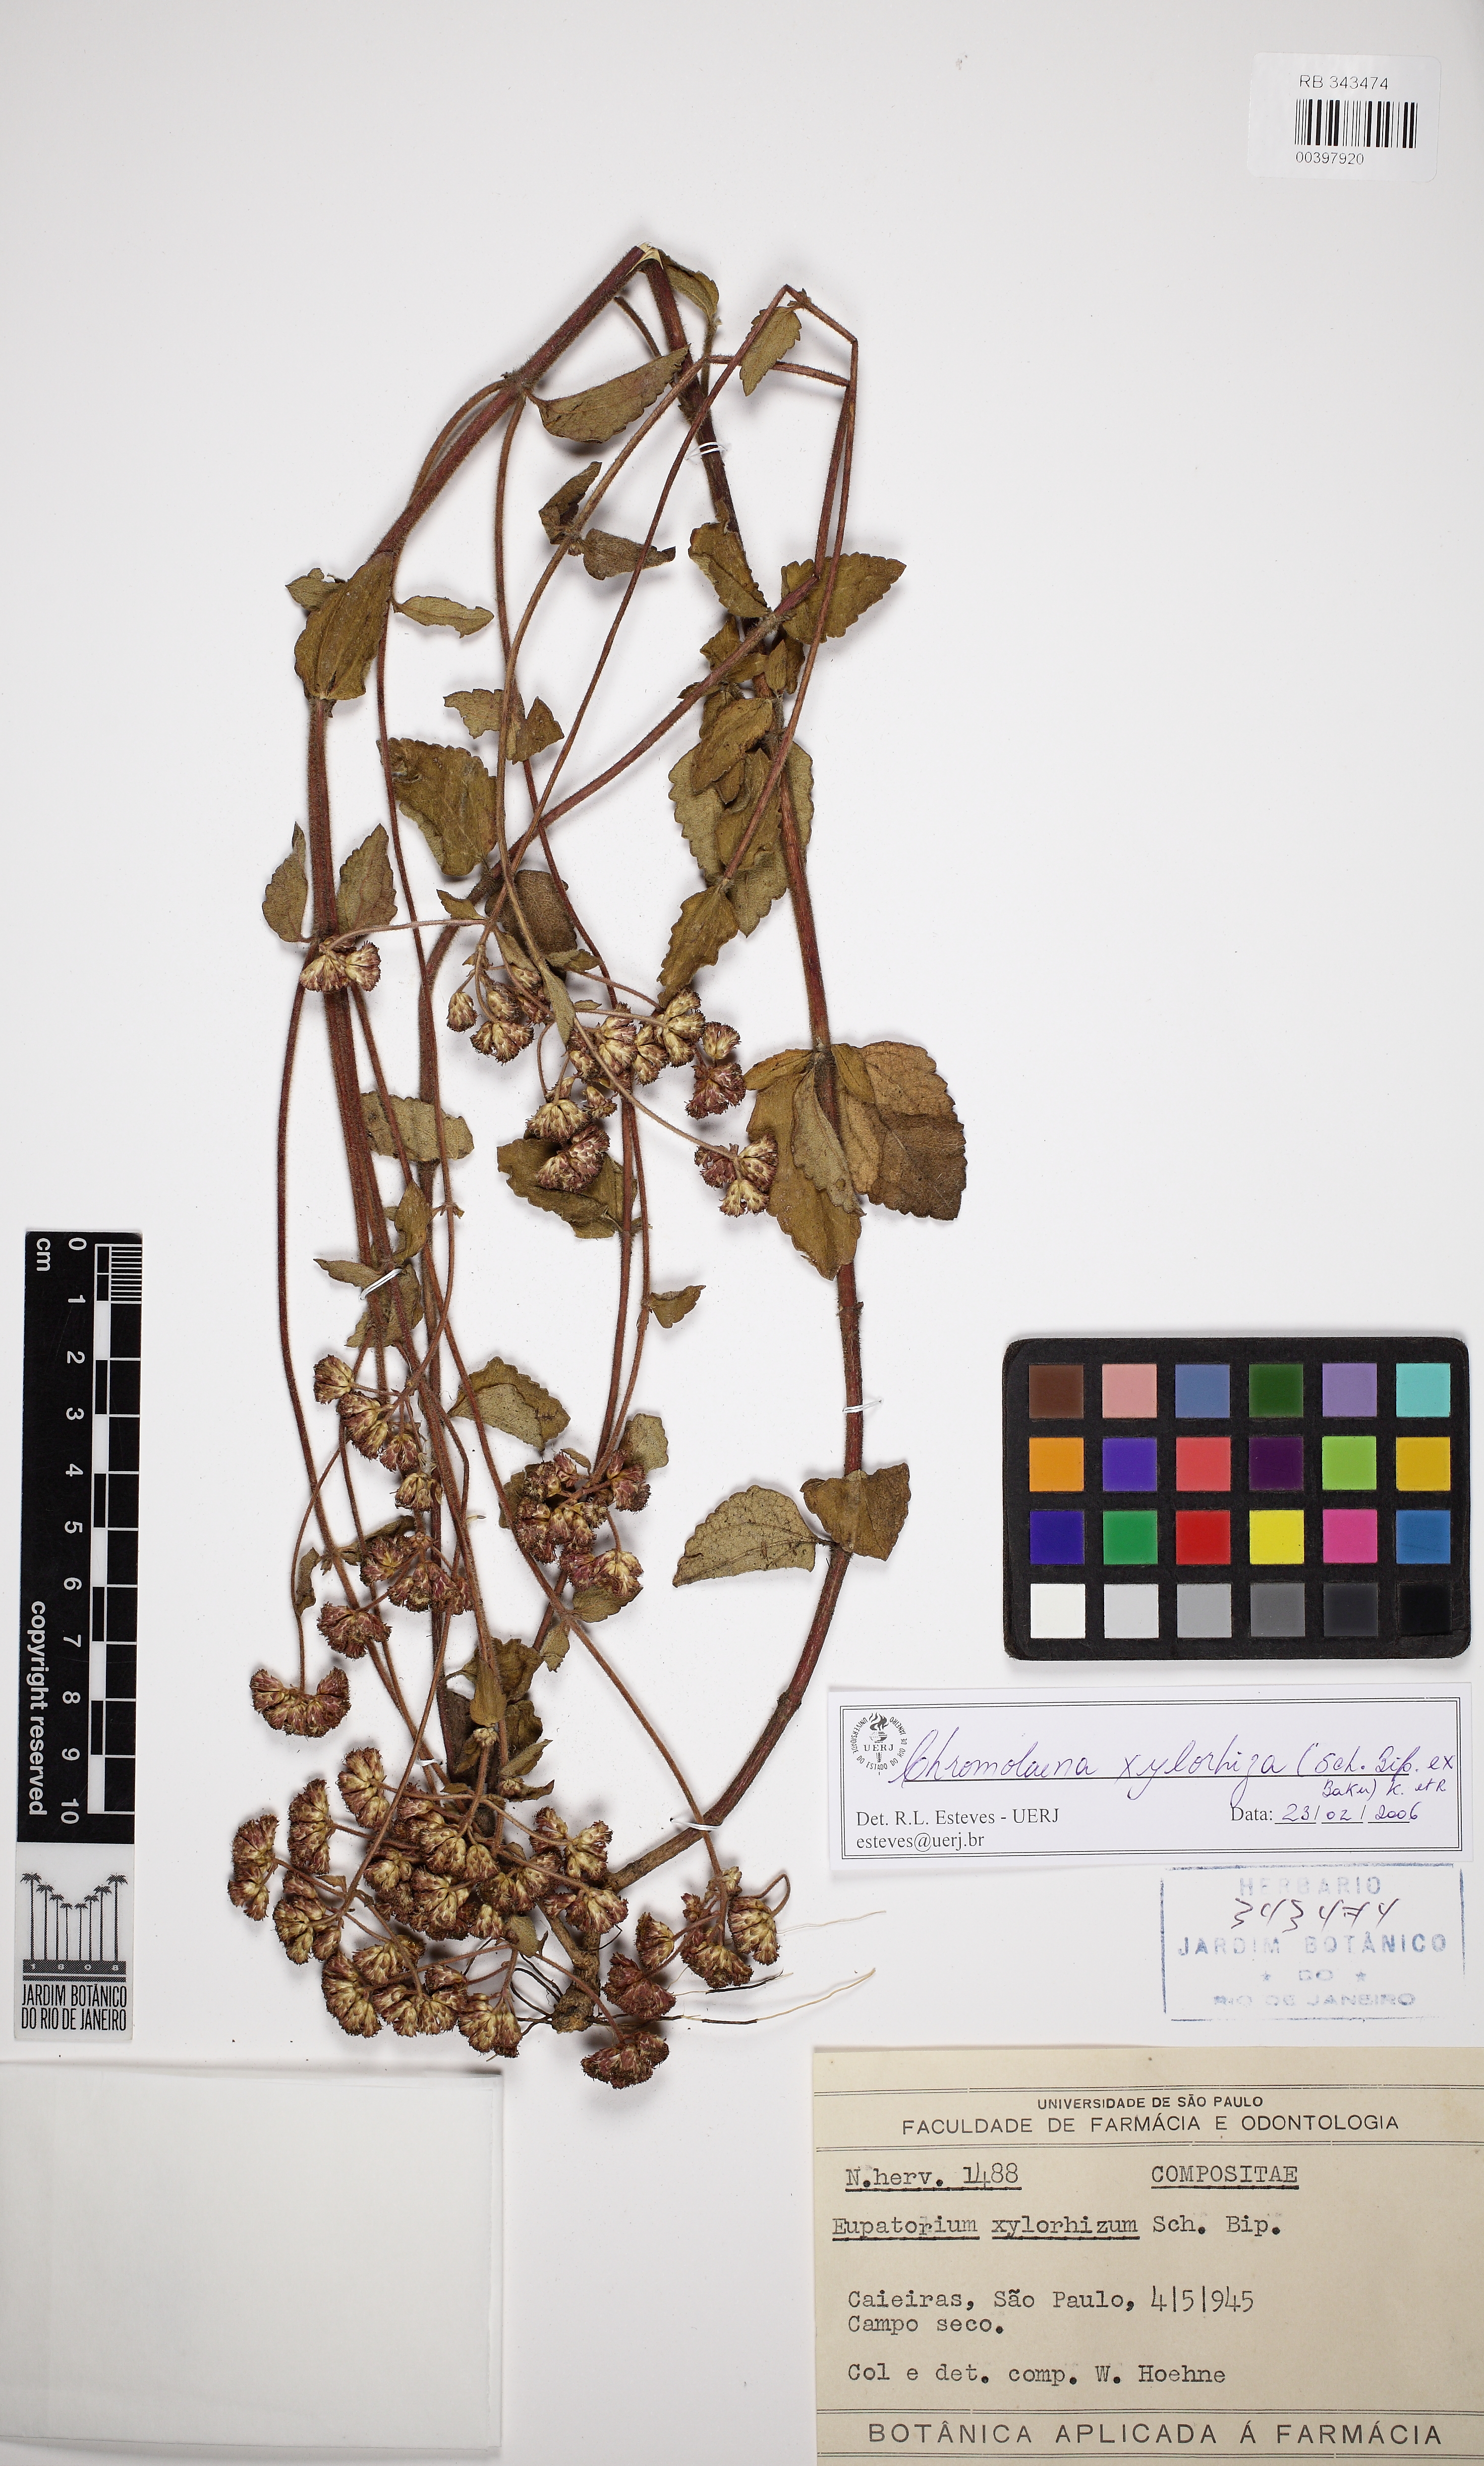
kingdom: Plantae
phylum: Tracheophyta
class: Magnoliopsida
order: Asterales
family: Asteraceae
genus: Chromolaena
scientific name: Chromolaena ascendens
